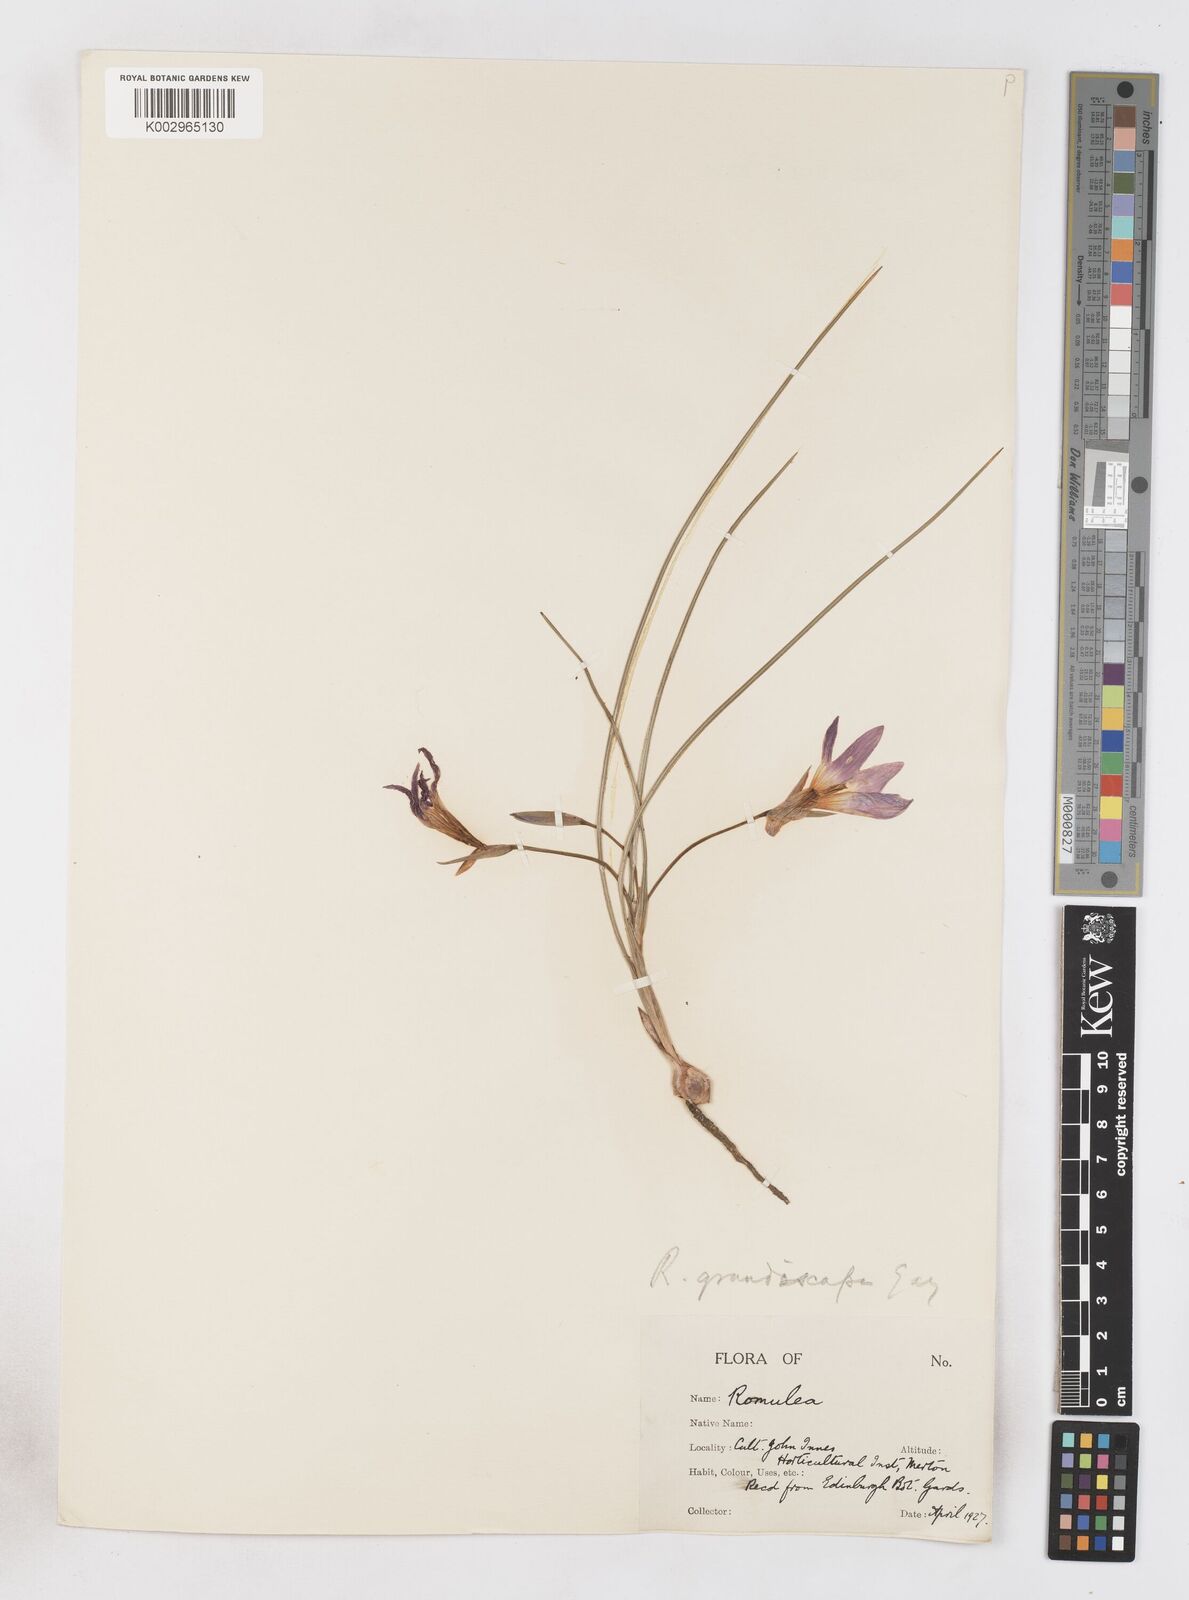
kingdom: Plantae
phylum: Tracheophyta
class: Liliopsida
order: Asparagales
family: Iridaceae
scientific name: Iridaceae
